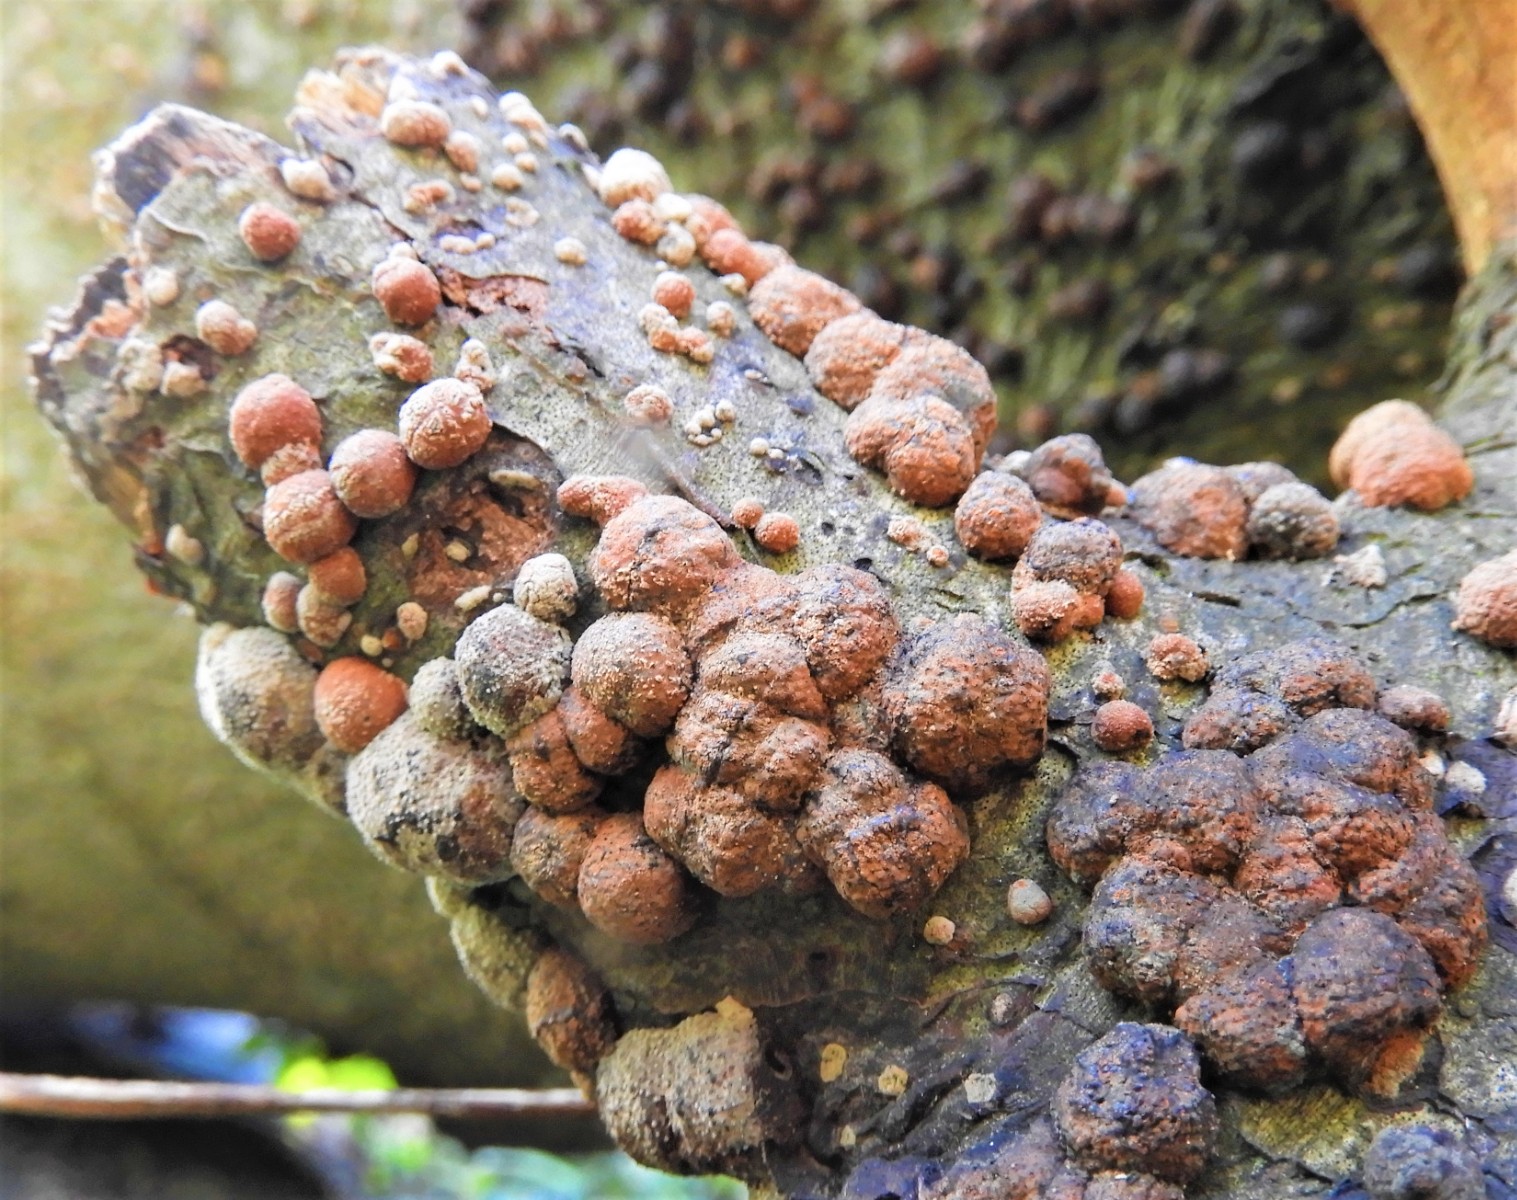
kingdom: Fungi
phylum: Ascomycota
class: Sordariomycetes
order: Xylariales
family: Hypoxylaceae
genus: Hypoxylon
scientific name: Hypoxylon fragiforme
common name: kuljordbær
